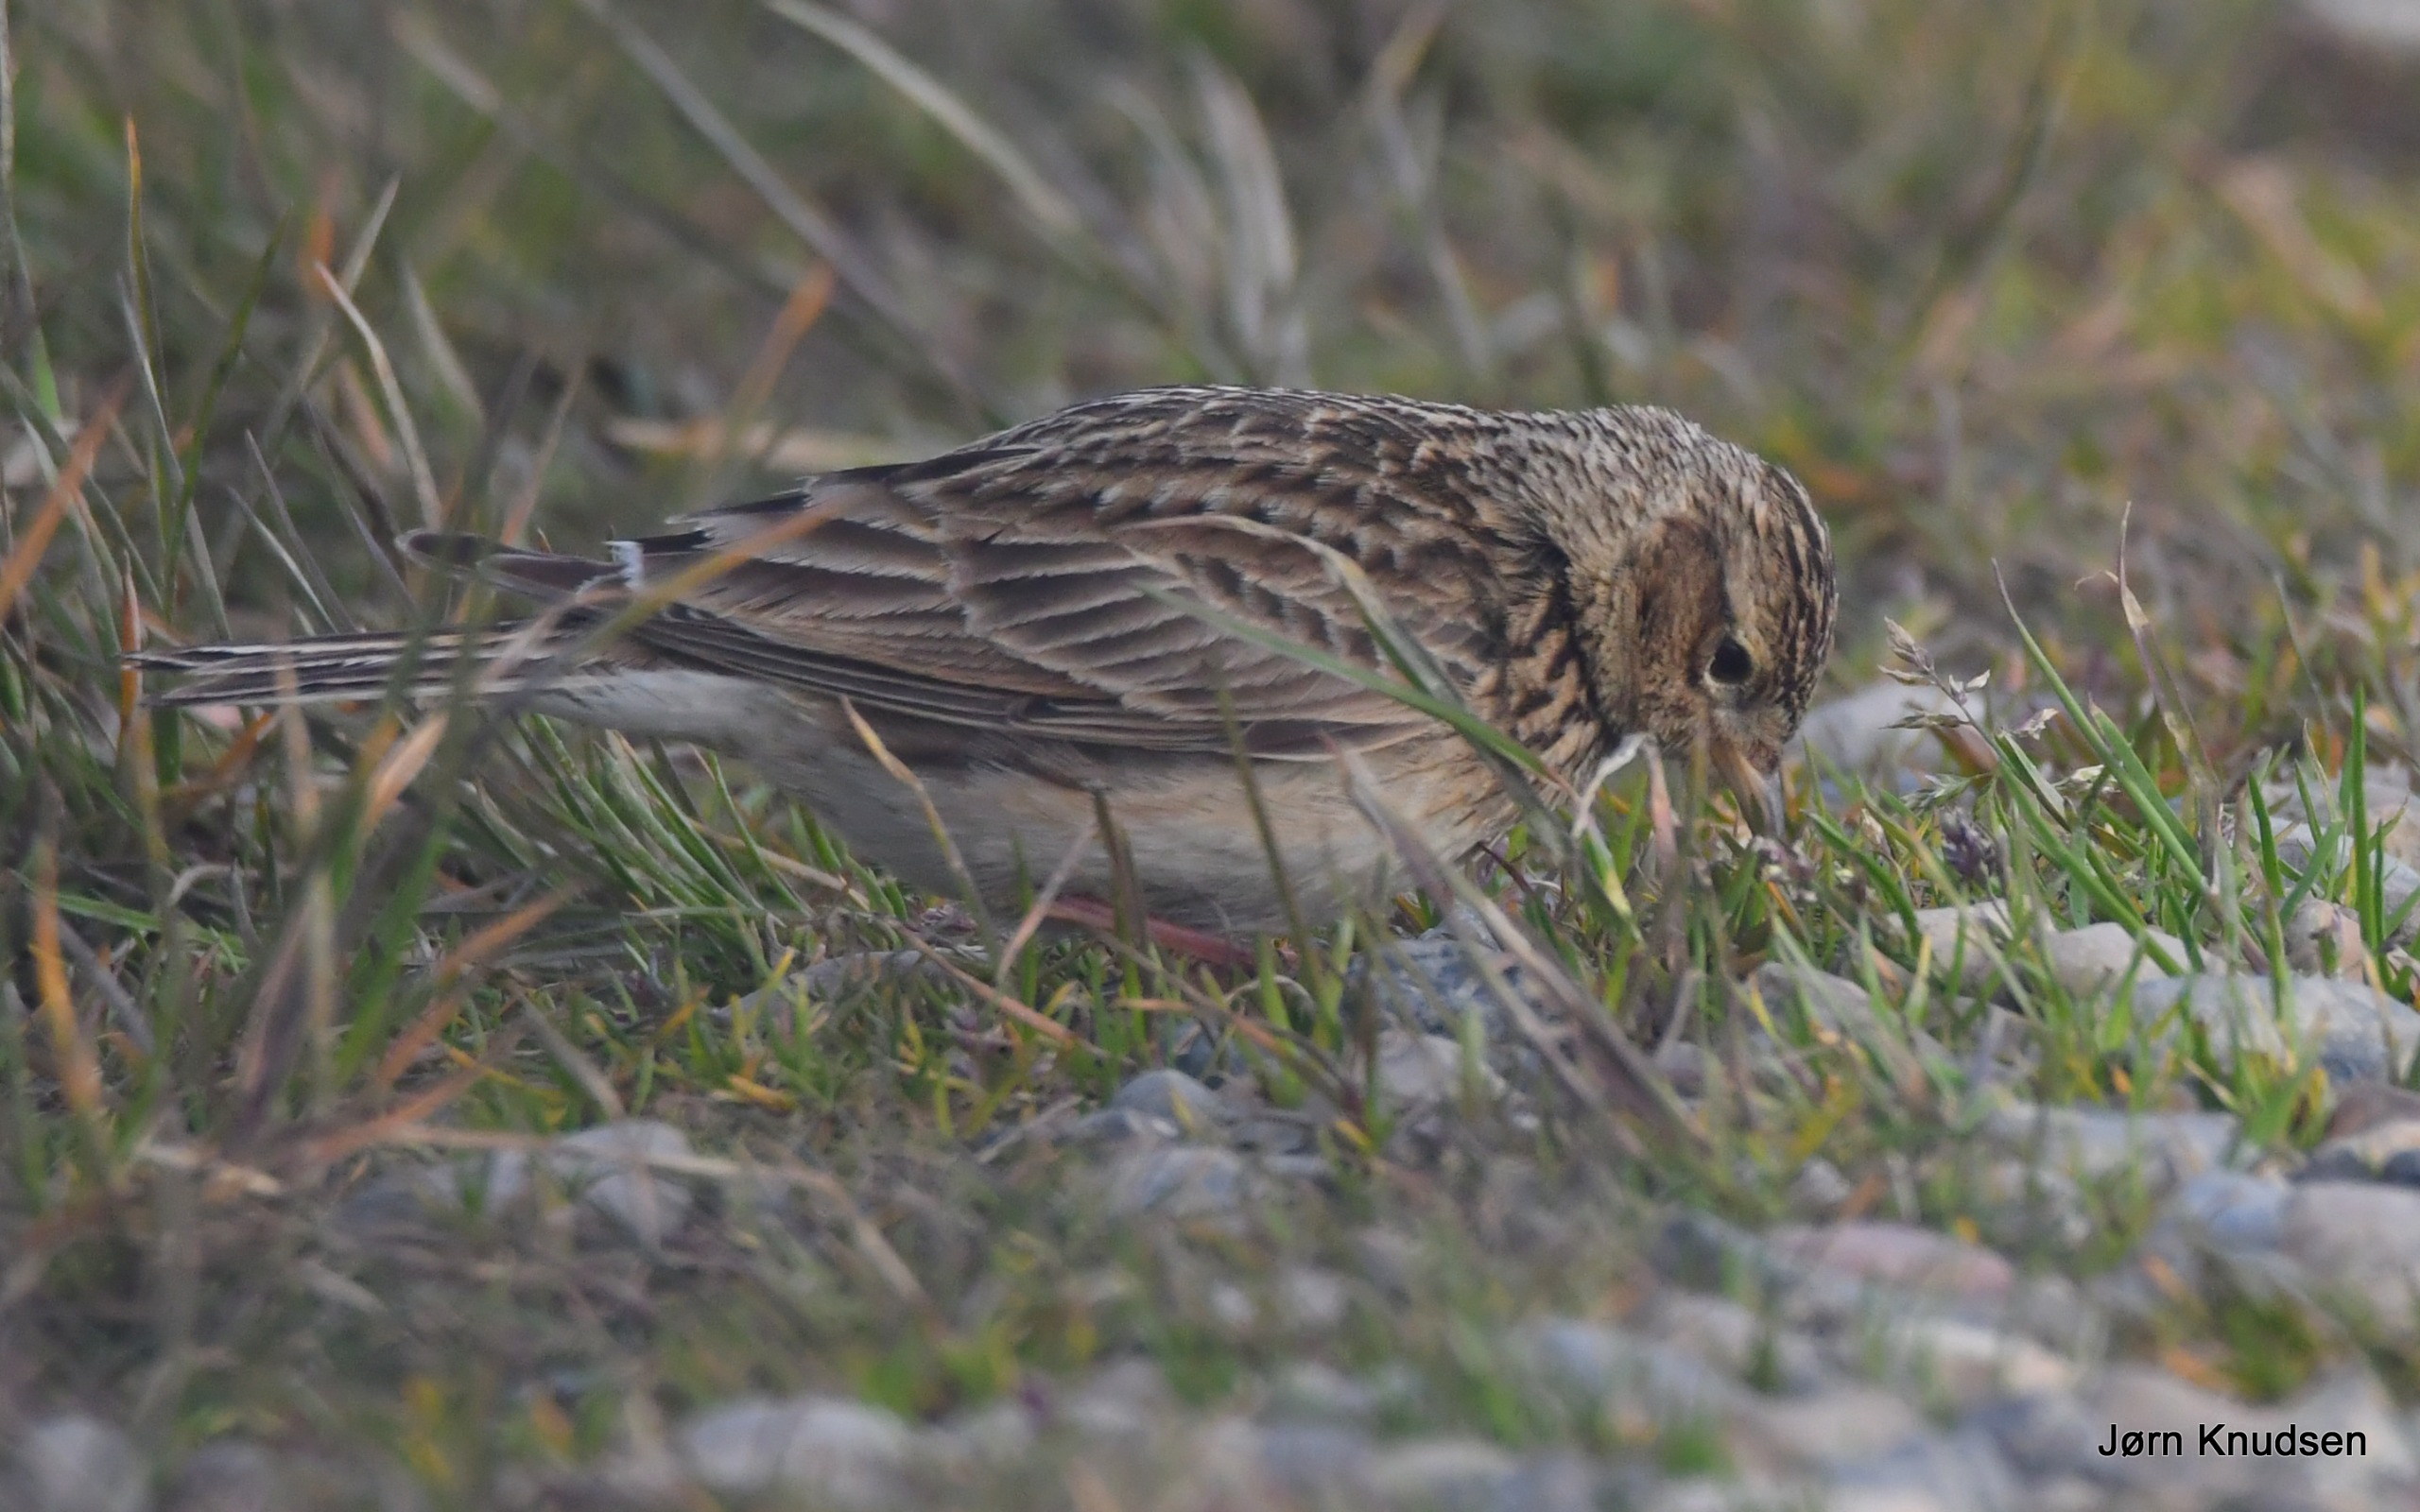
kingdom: Animalia
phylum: Chordata
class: Aves
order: Passeriformes
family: Alaudidae
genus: Alauda
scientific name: Alauda arvensis
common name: Sanglærke
